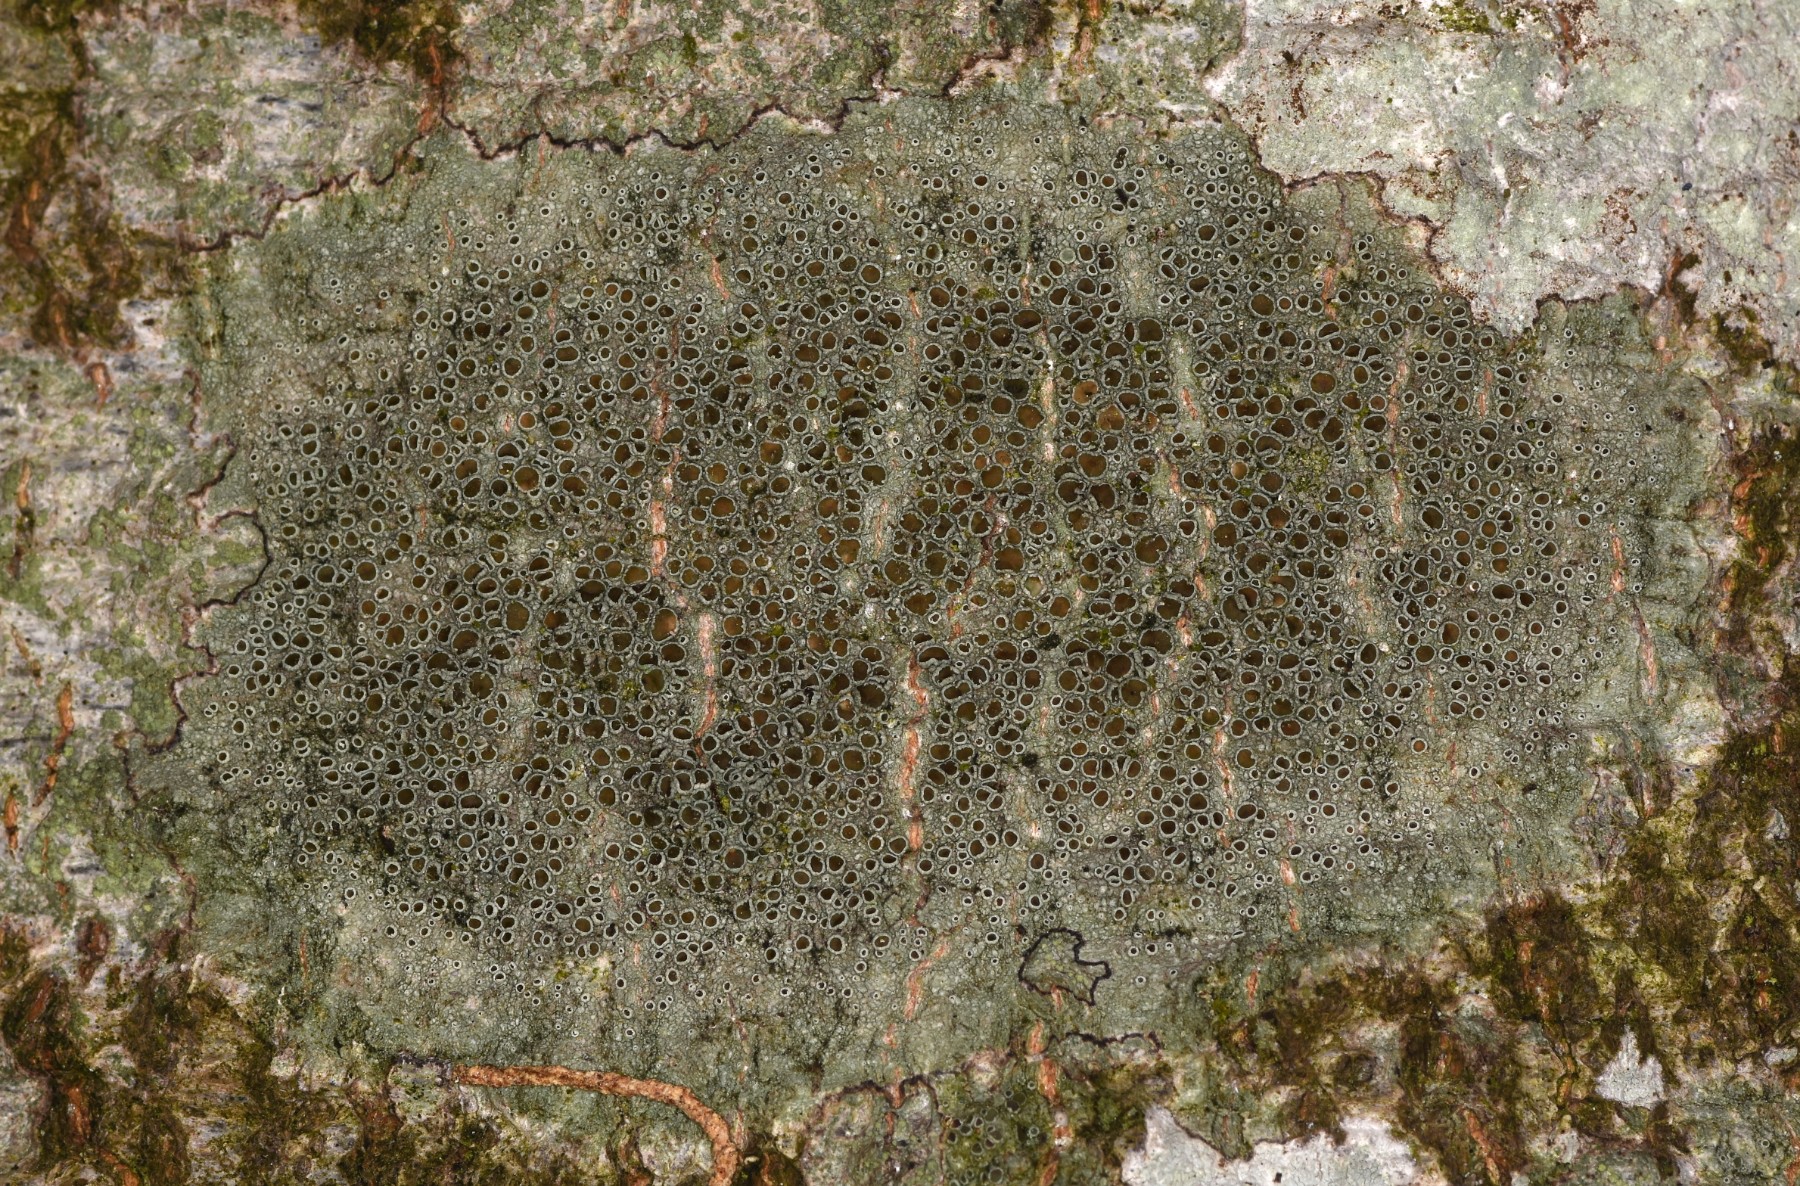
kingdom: Fungi
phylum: Ascomycota
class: Lecanoromycetes
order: Lecanorales
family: Lecanoraceae
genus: Lecanora
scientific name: Lecanora chlarotera
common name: brun kantskivelav
